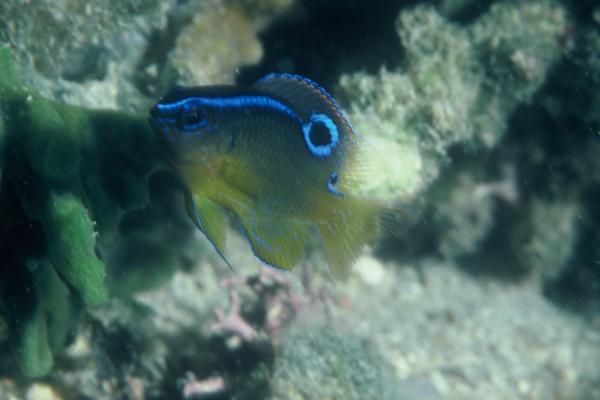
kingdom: Animalia
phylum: Chordata
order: Perciformes
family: Pomacentridae
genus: Chrysiptera
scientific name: Chrysiptera unimaculata
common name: Onespot demoiselle
